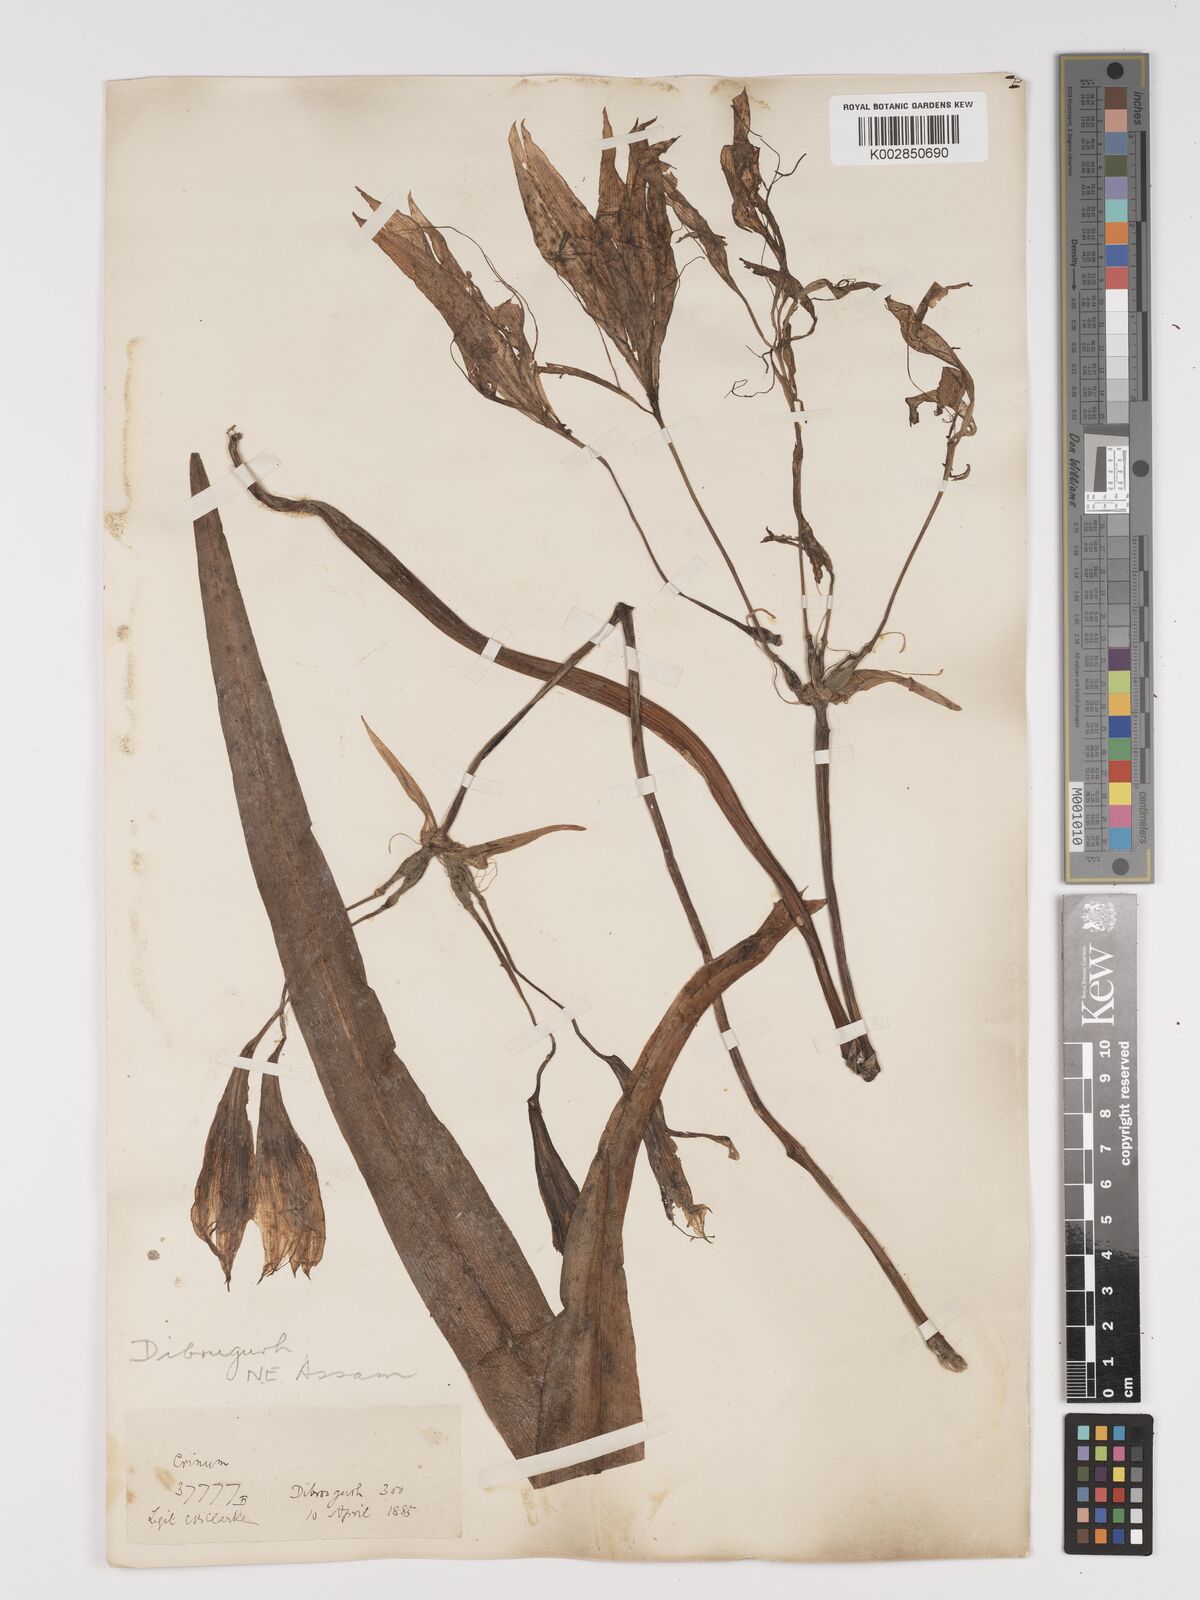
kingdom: Plantae
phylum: Tracheophyta
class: Liliopsida
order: Asparagales
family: Amaryllidaceae
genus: Crinum
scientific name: Crinum zeylanicum
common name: Ceylon swamplily
